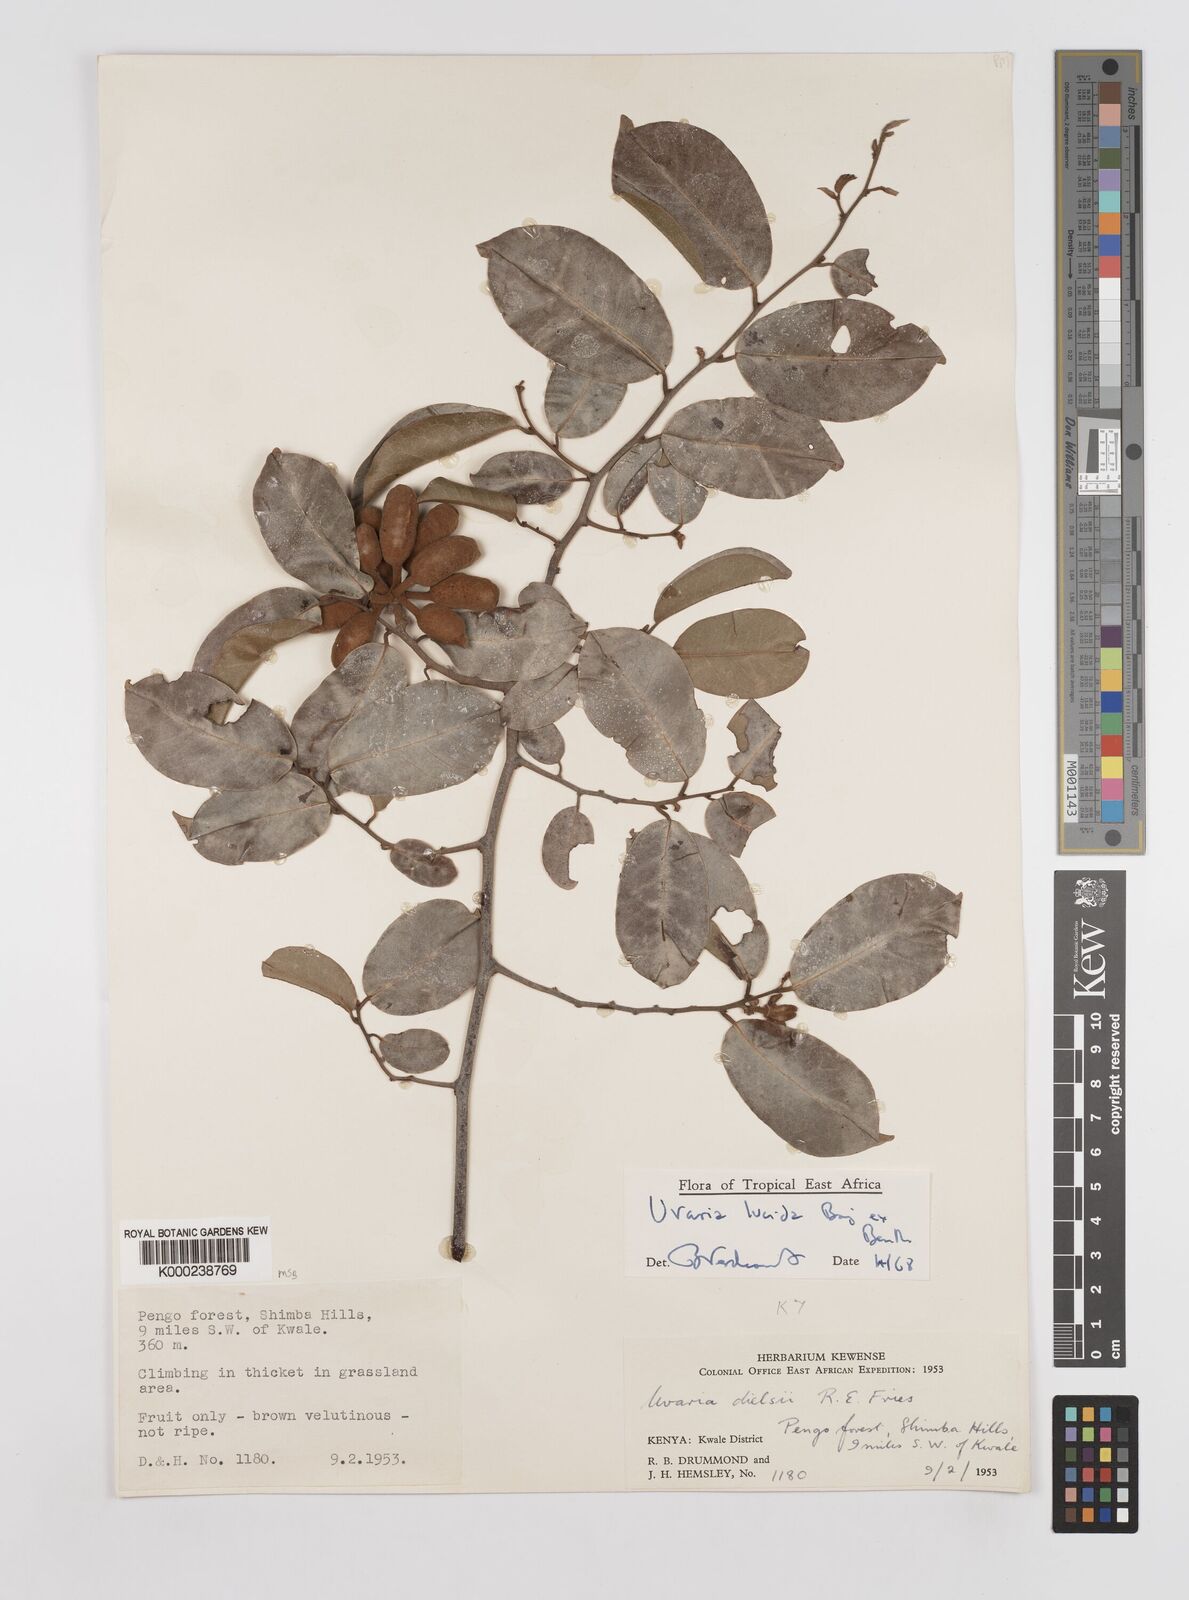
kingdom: Plantae
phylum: Tracheophyta
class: Magnoliopsida
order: Magnoliales
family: Annonaceae
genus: Uvaria
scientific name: Uvaria lucida
